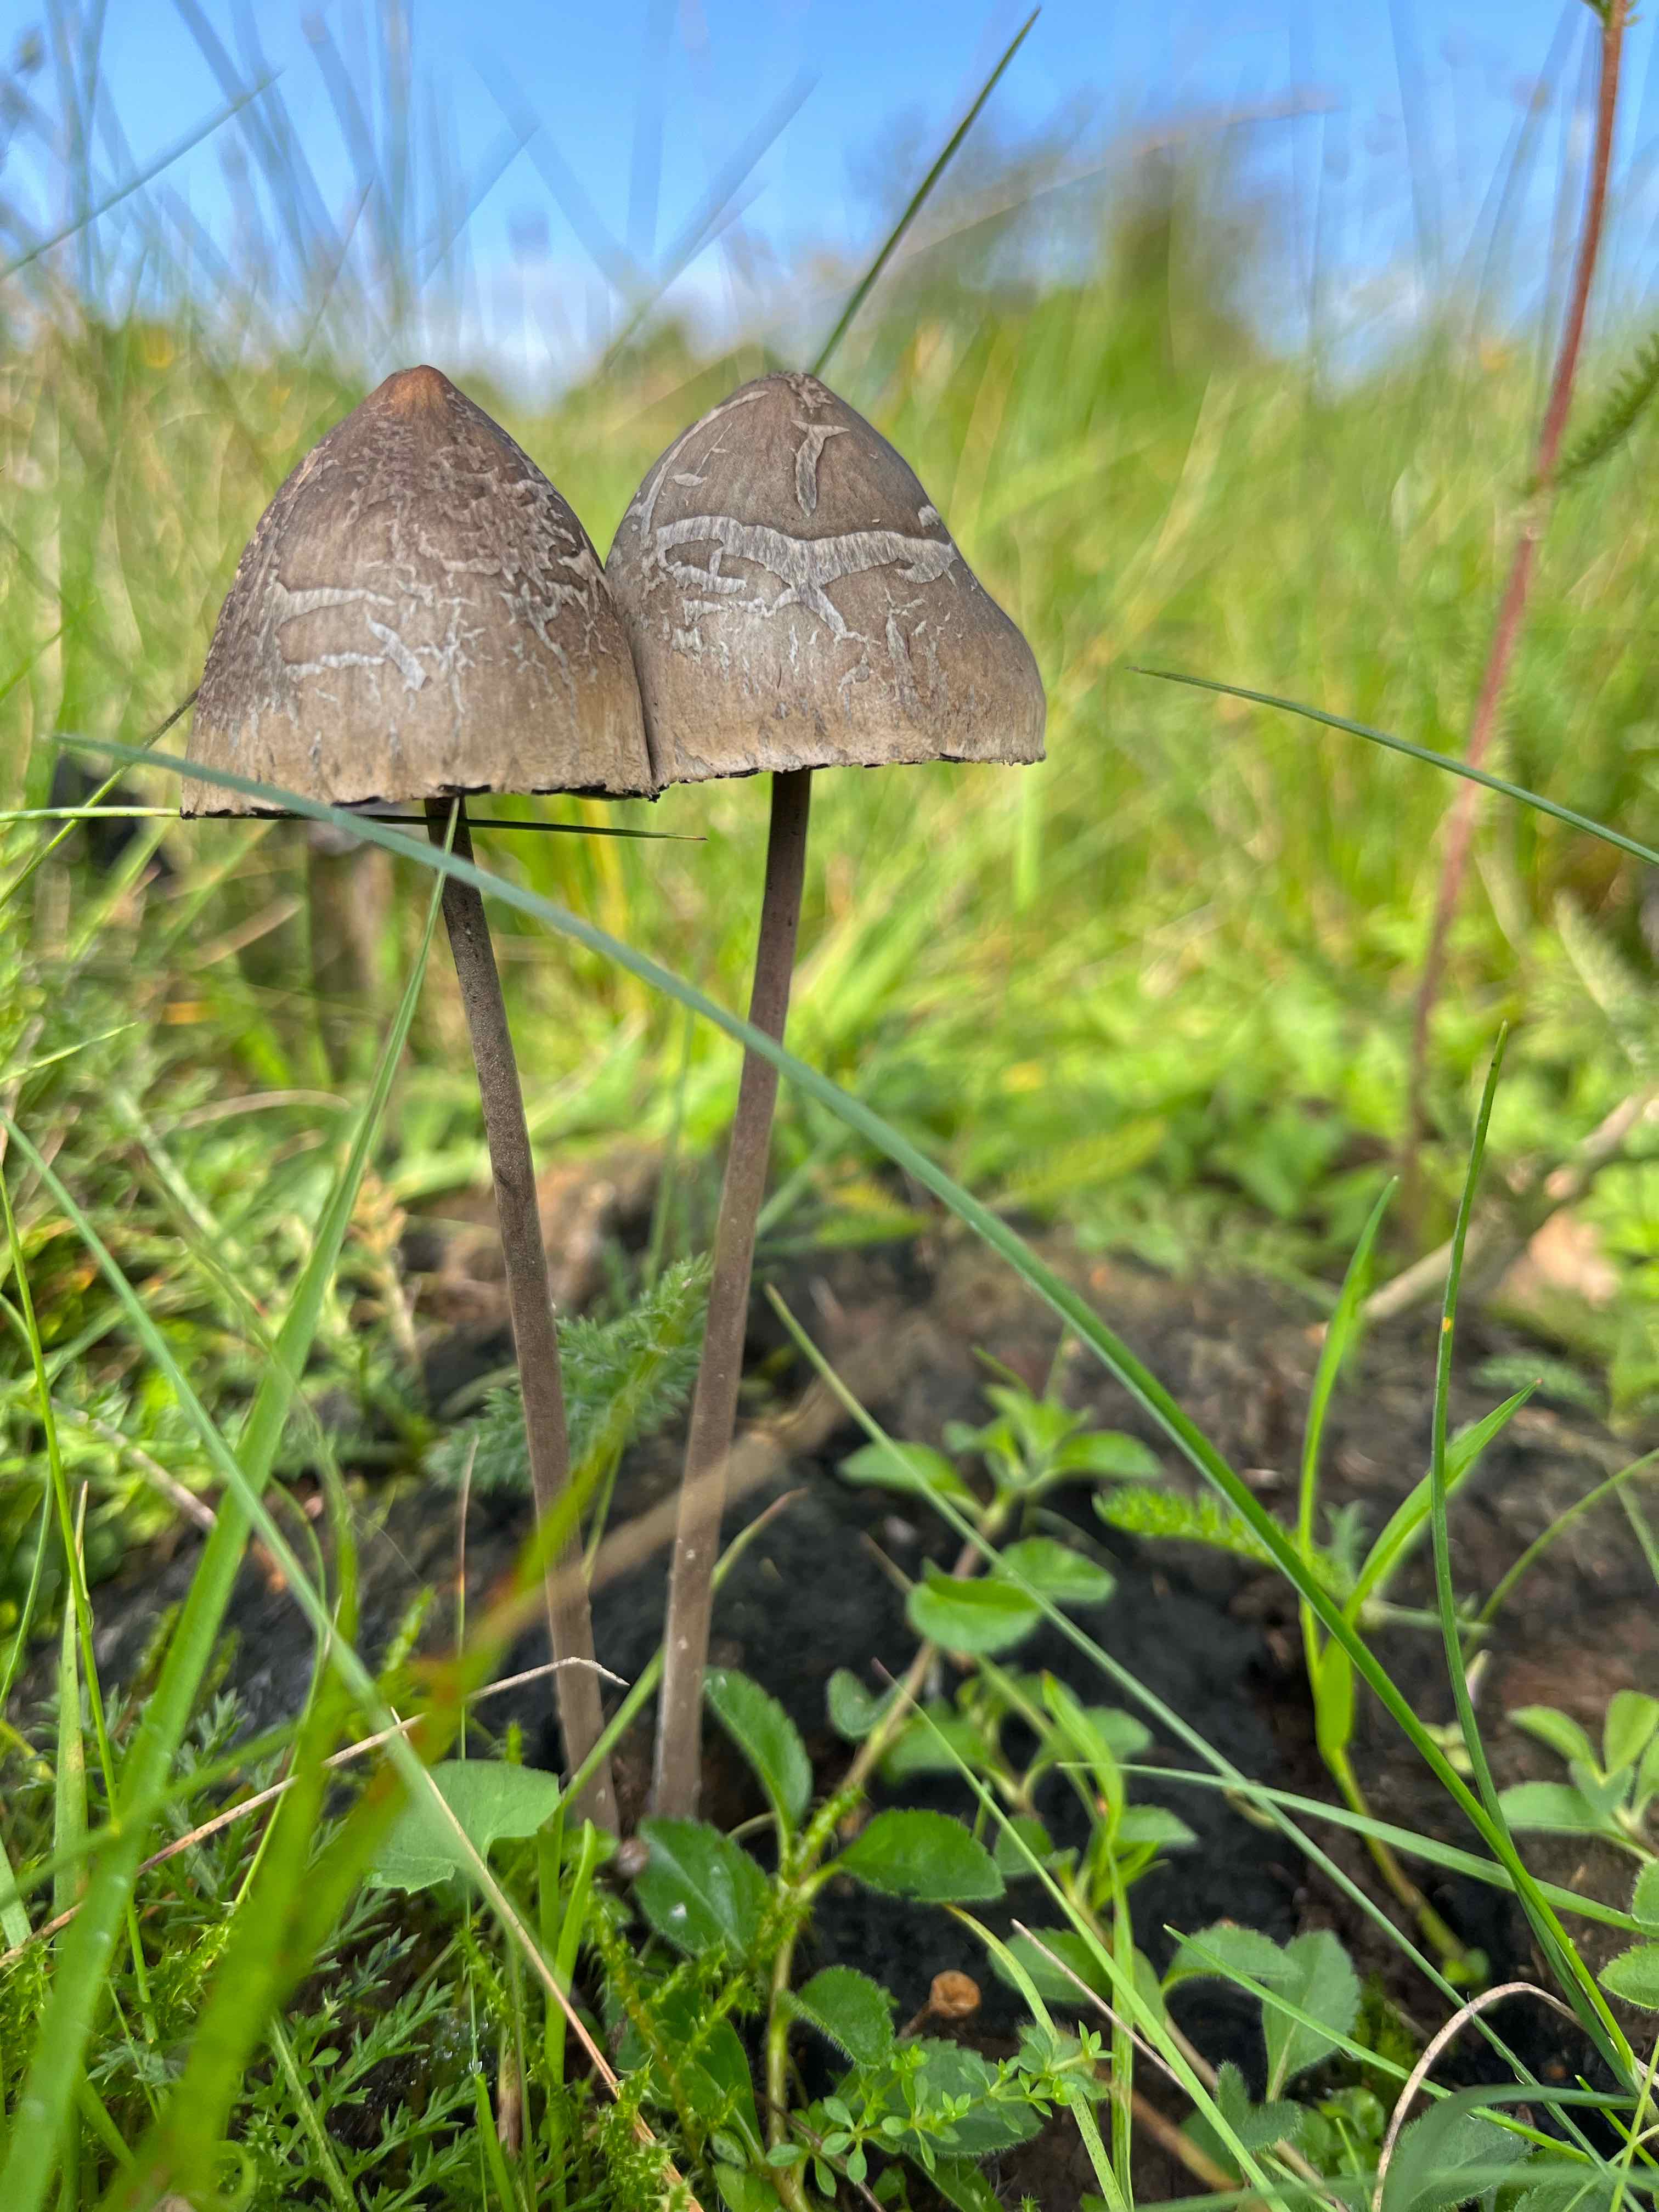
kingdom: Fungi
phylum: Basidiomycota
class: Agaricomycetes
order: Agaricales
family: Bolbitiaceae
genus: Panaeolus
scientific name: Panaeolus papilionaceus
